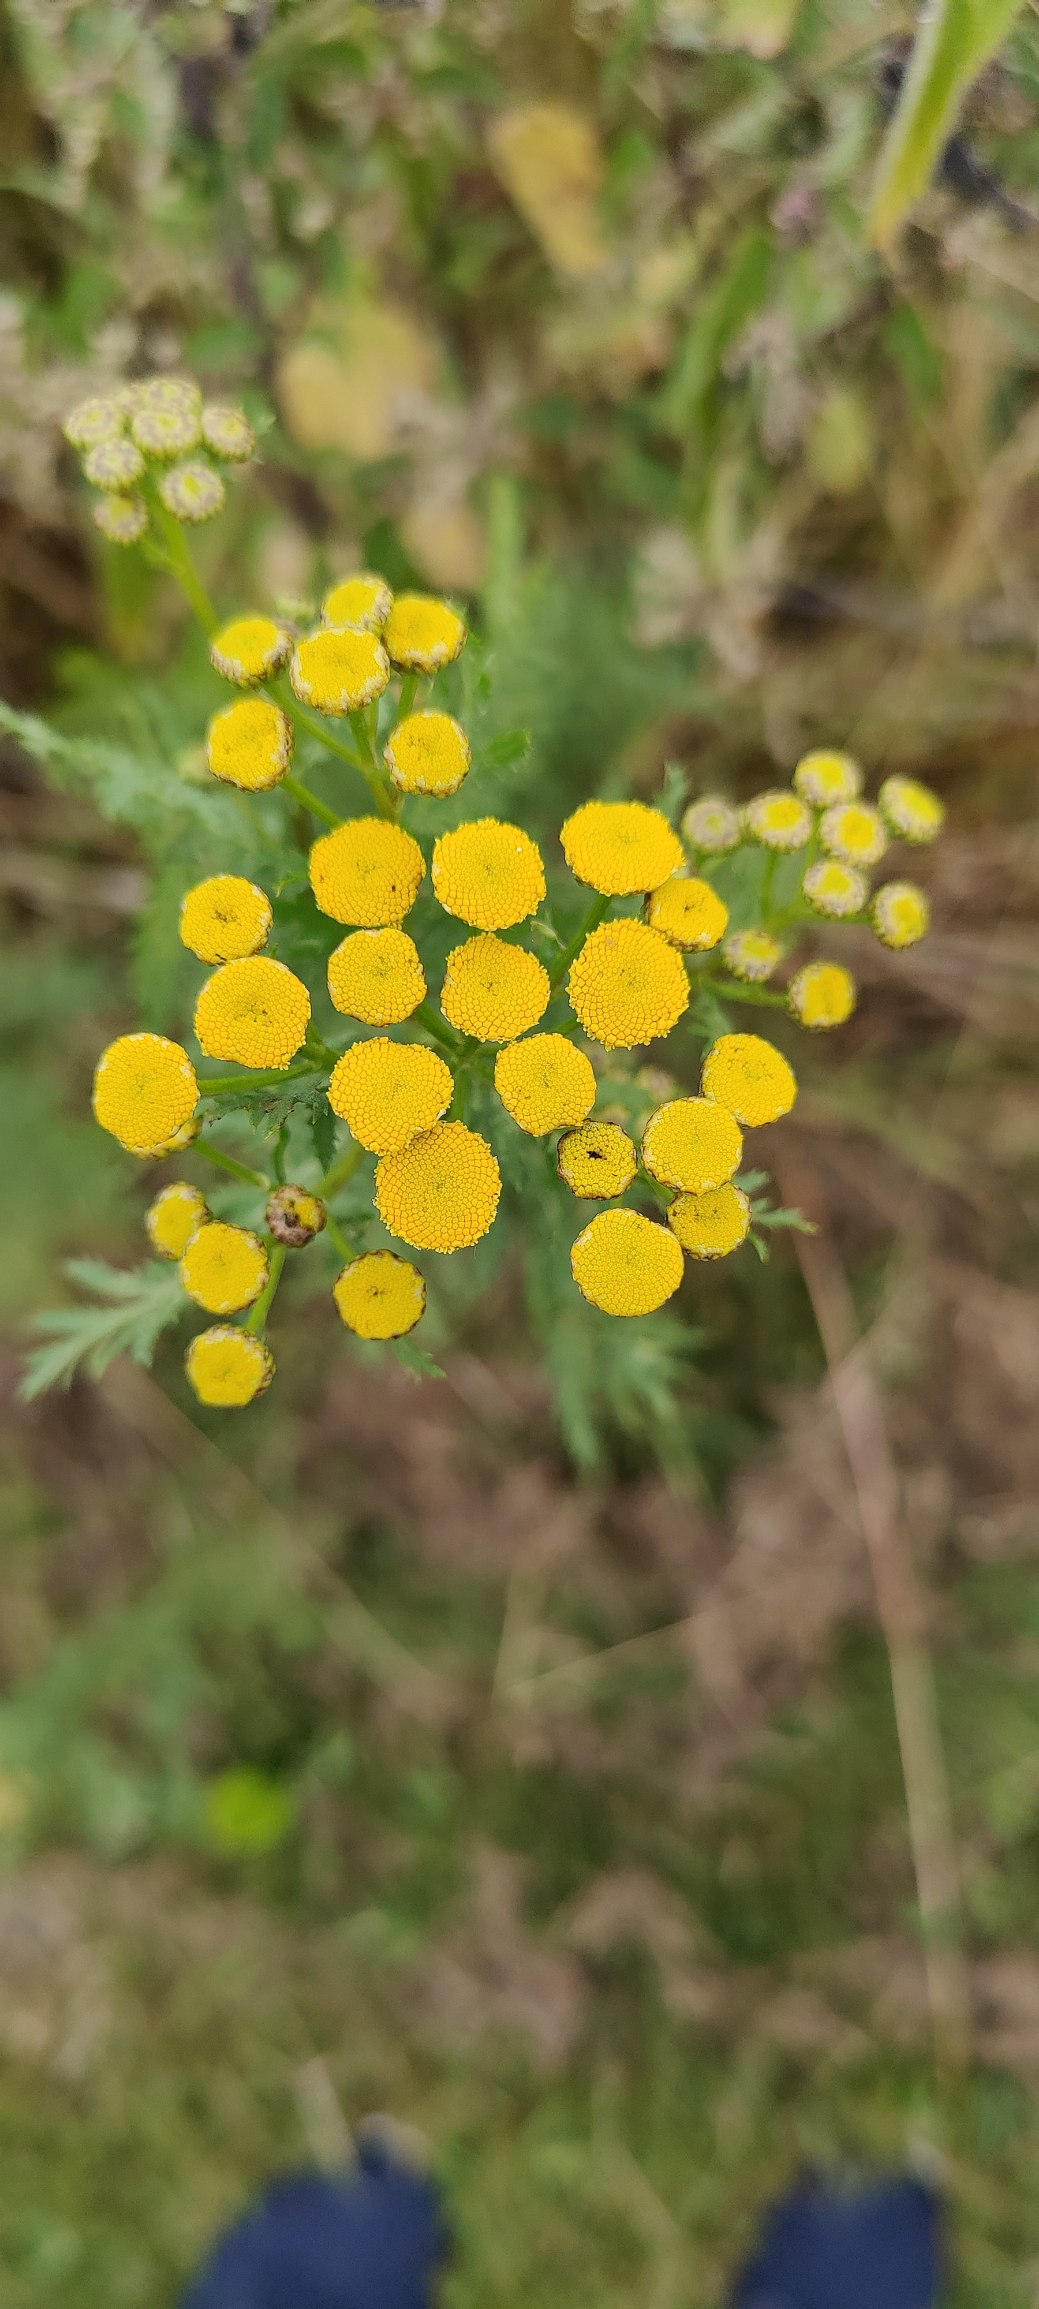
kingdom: Plantae
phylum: Tracheophyta
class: Magnoliopsida
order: Asterales
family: Asteraceae
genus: Tanacetum
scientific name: Tanacetum vulgare
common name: Rejnfan
